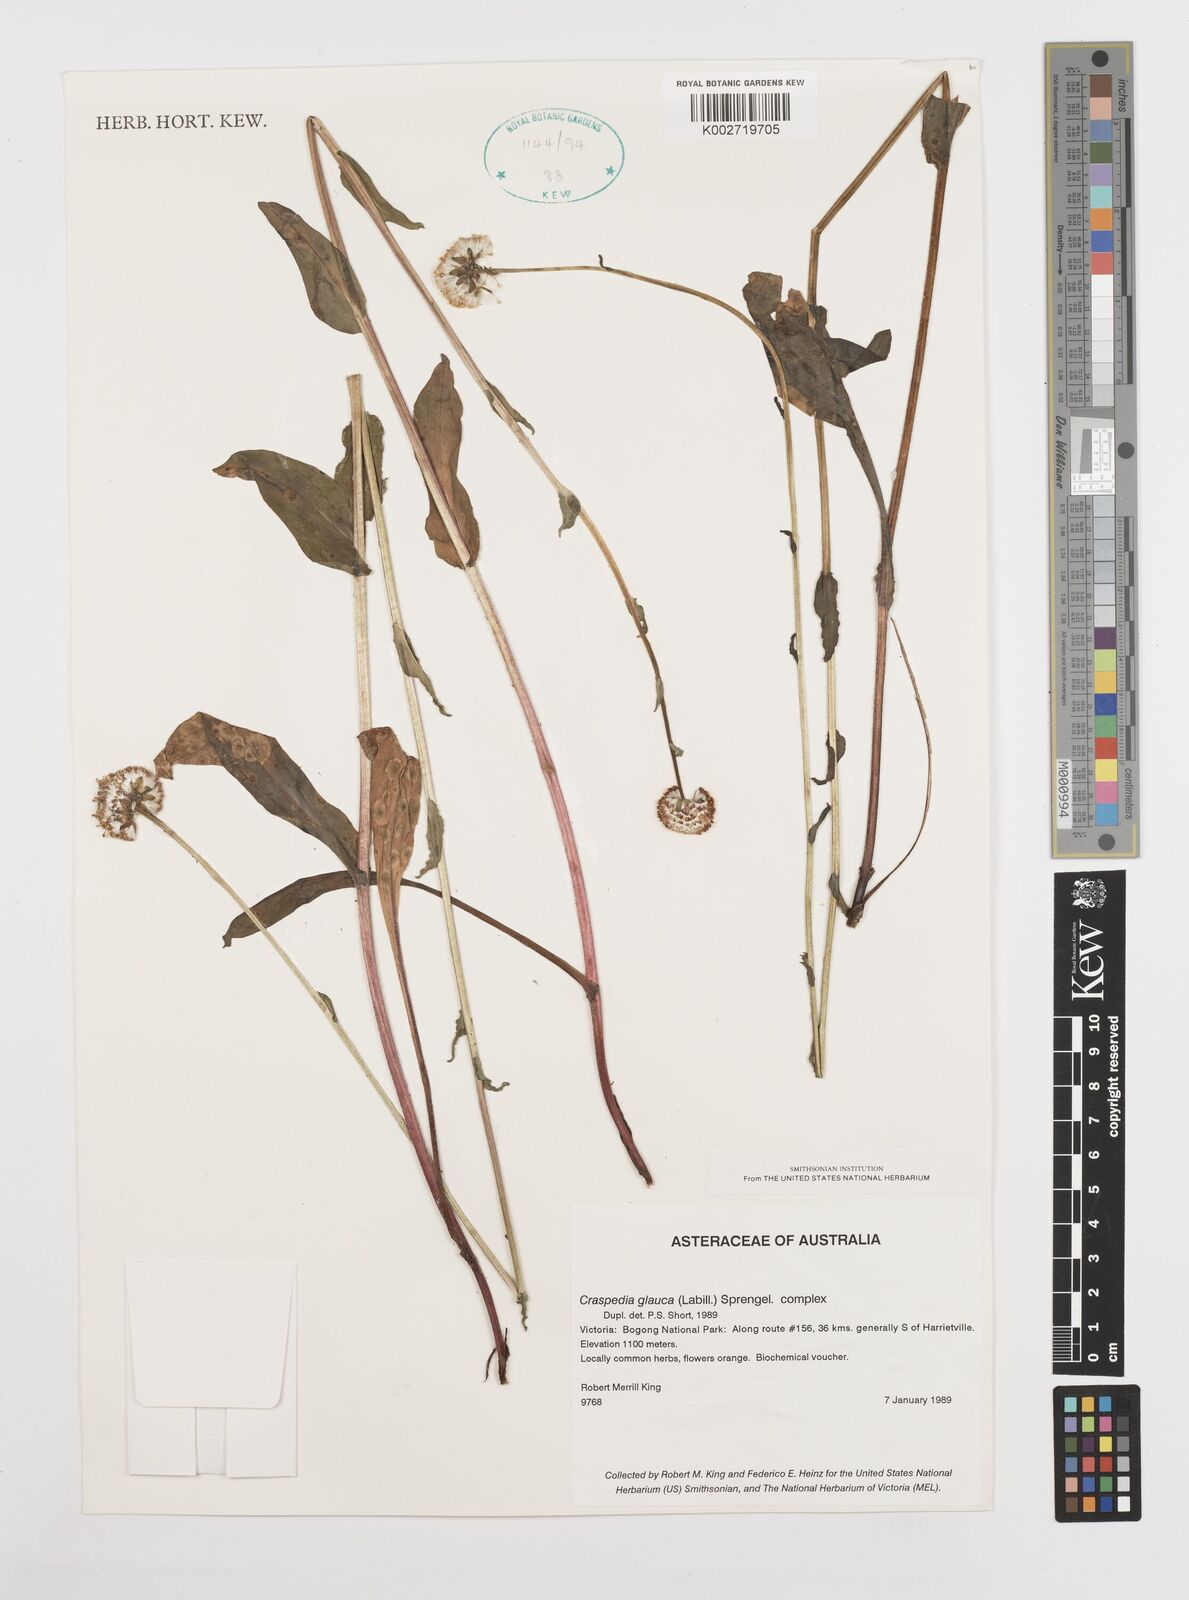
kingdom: Plantae
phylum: Tracheophyta
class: Magnoliopsida
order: Asterales
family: Asteraceae
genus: Craspedia
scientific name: Craspedia glauca
